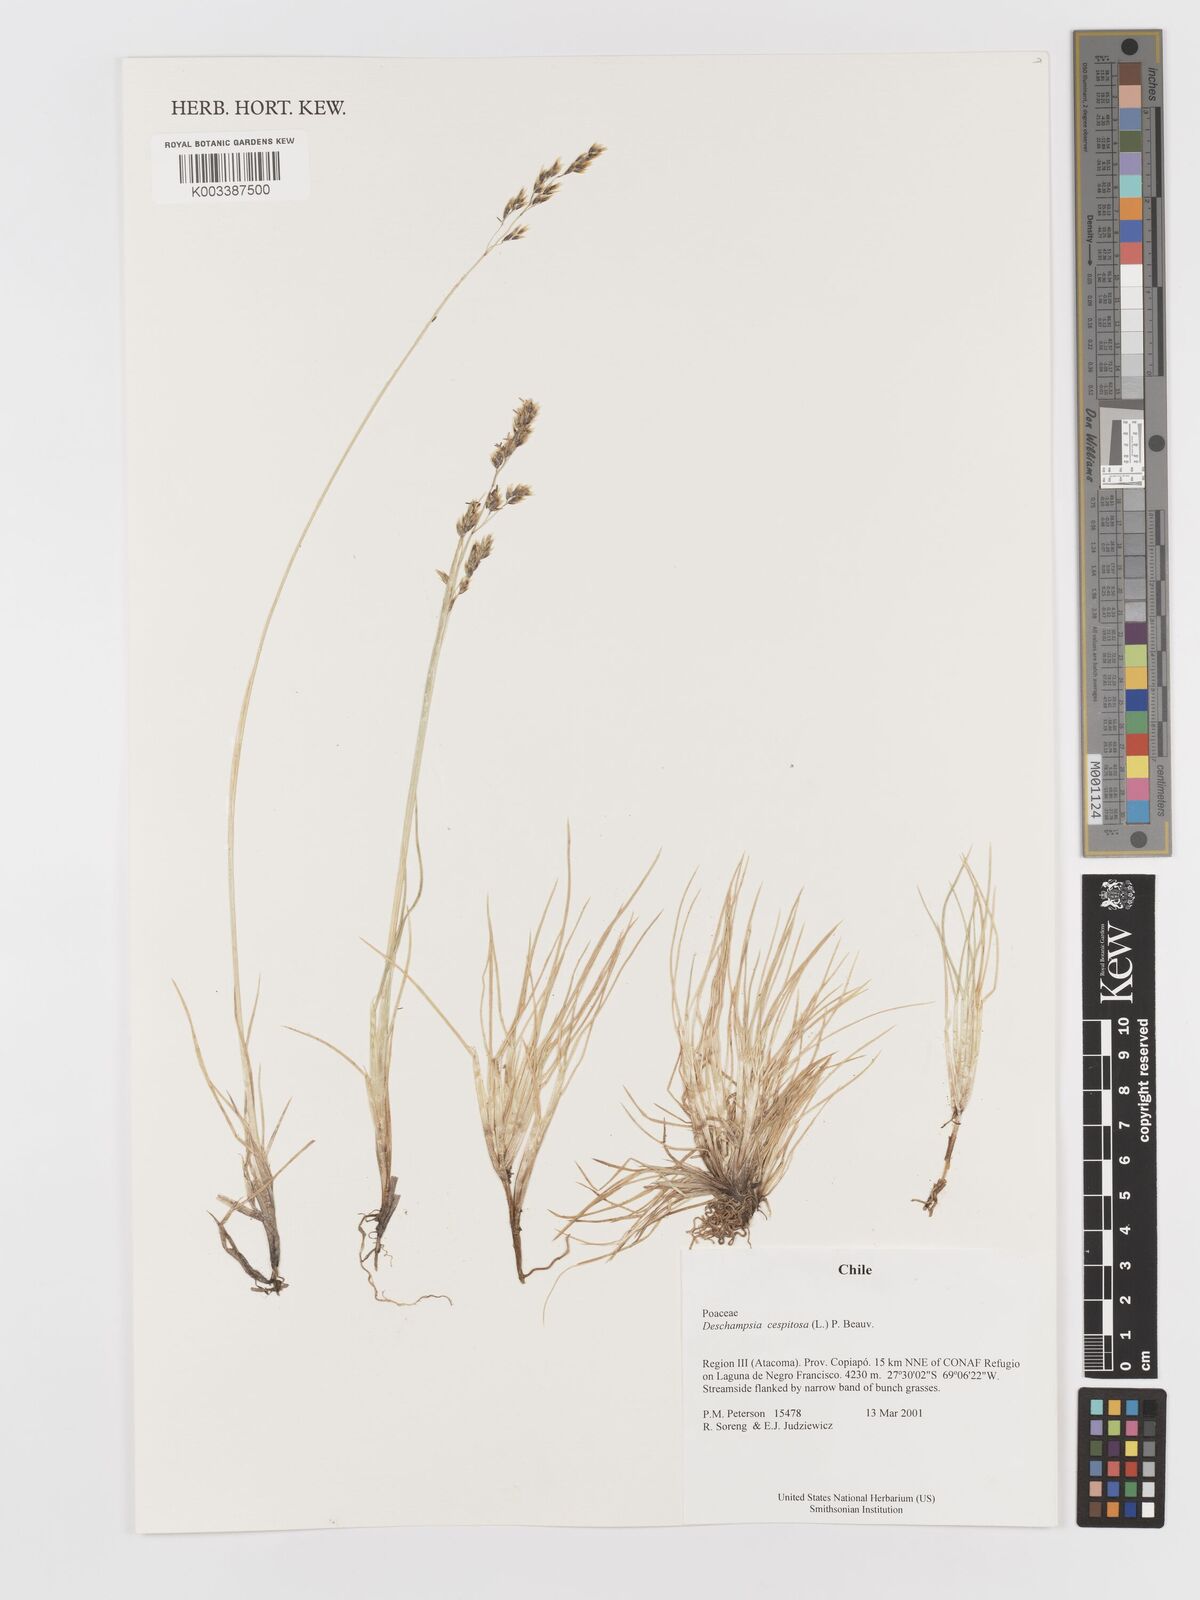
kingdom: Plantae
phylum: Tracheophyta
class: Liliopsida
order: Poales
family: Poaceae
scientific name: Poaceae
